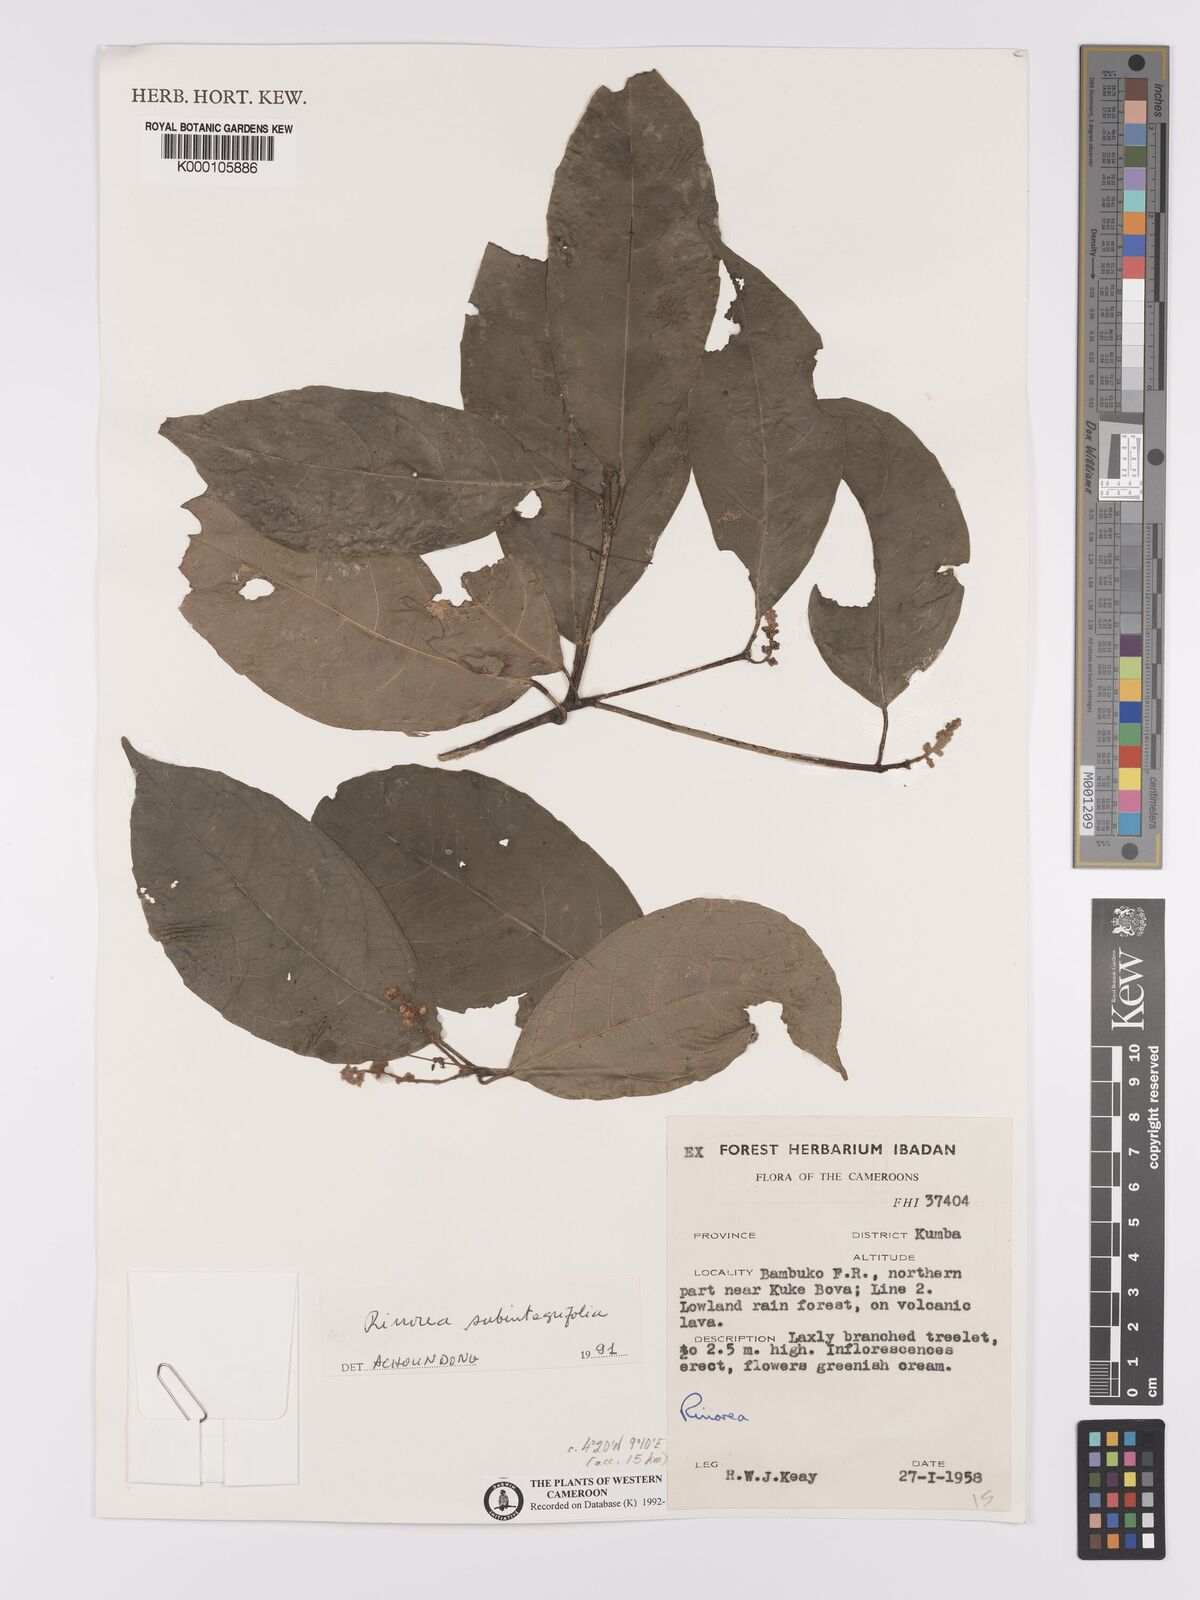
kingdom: Plantae
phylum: Tracheophyta
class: Magnoliopsida
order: Malpighiales
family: Violaceae
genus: Rinorea
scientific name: Rinorea subintegrifolia
